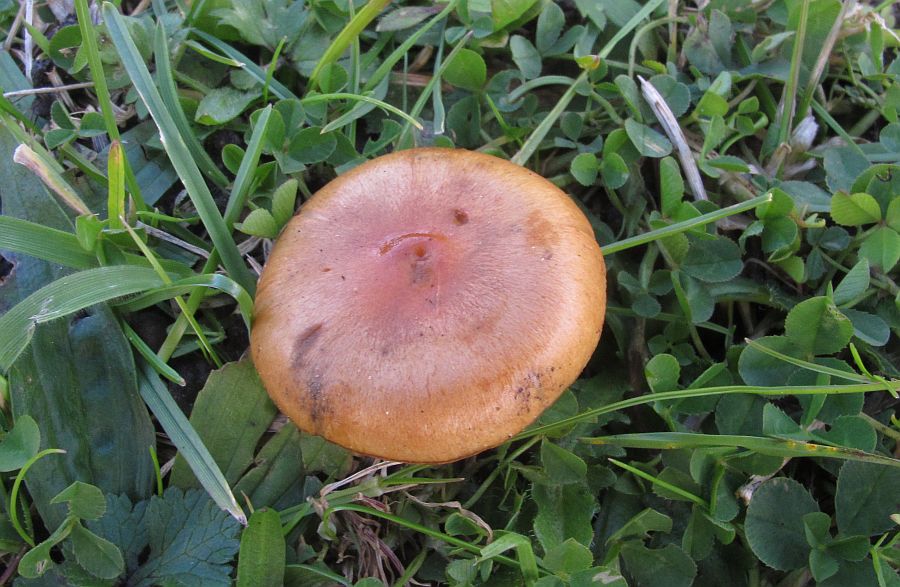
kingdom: Fungi
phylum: Basidiomycota
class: Agaricomycetes
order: Agaricales
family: Strophariaceae
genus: Pholiota
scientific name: Pholiota carbonaria
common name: kul-skælhat
